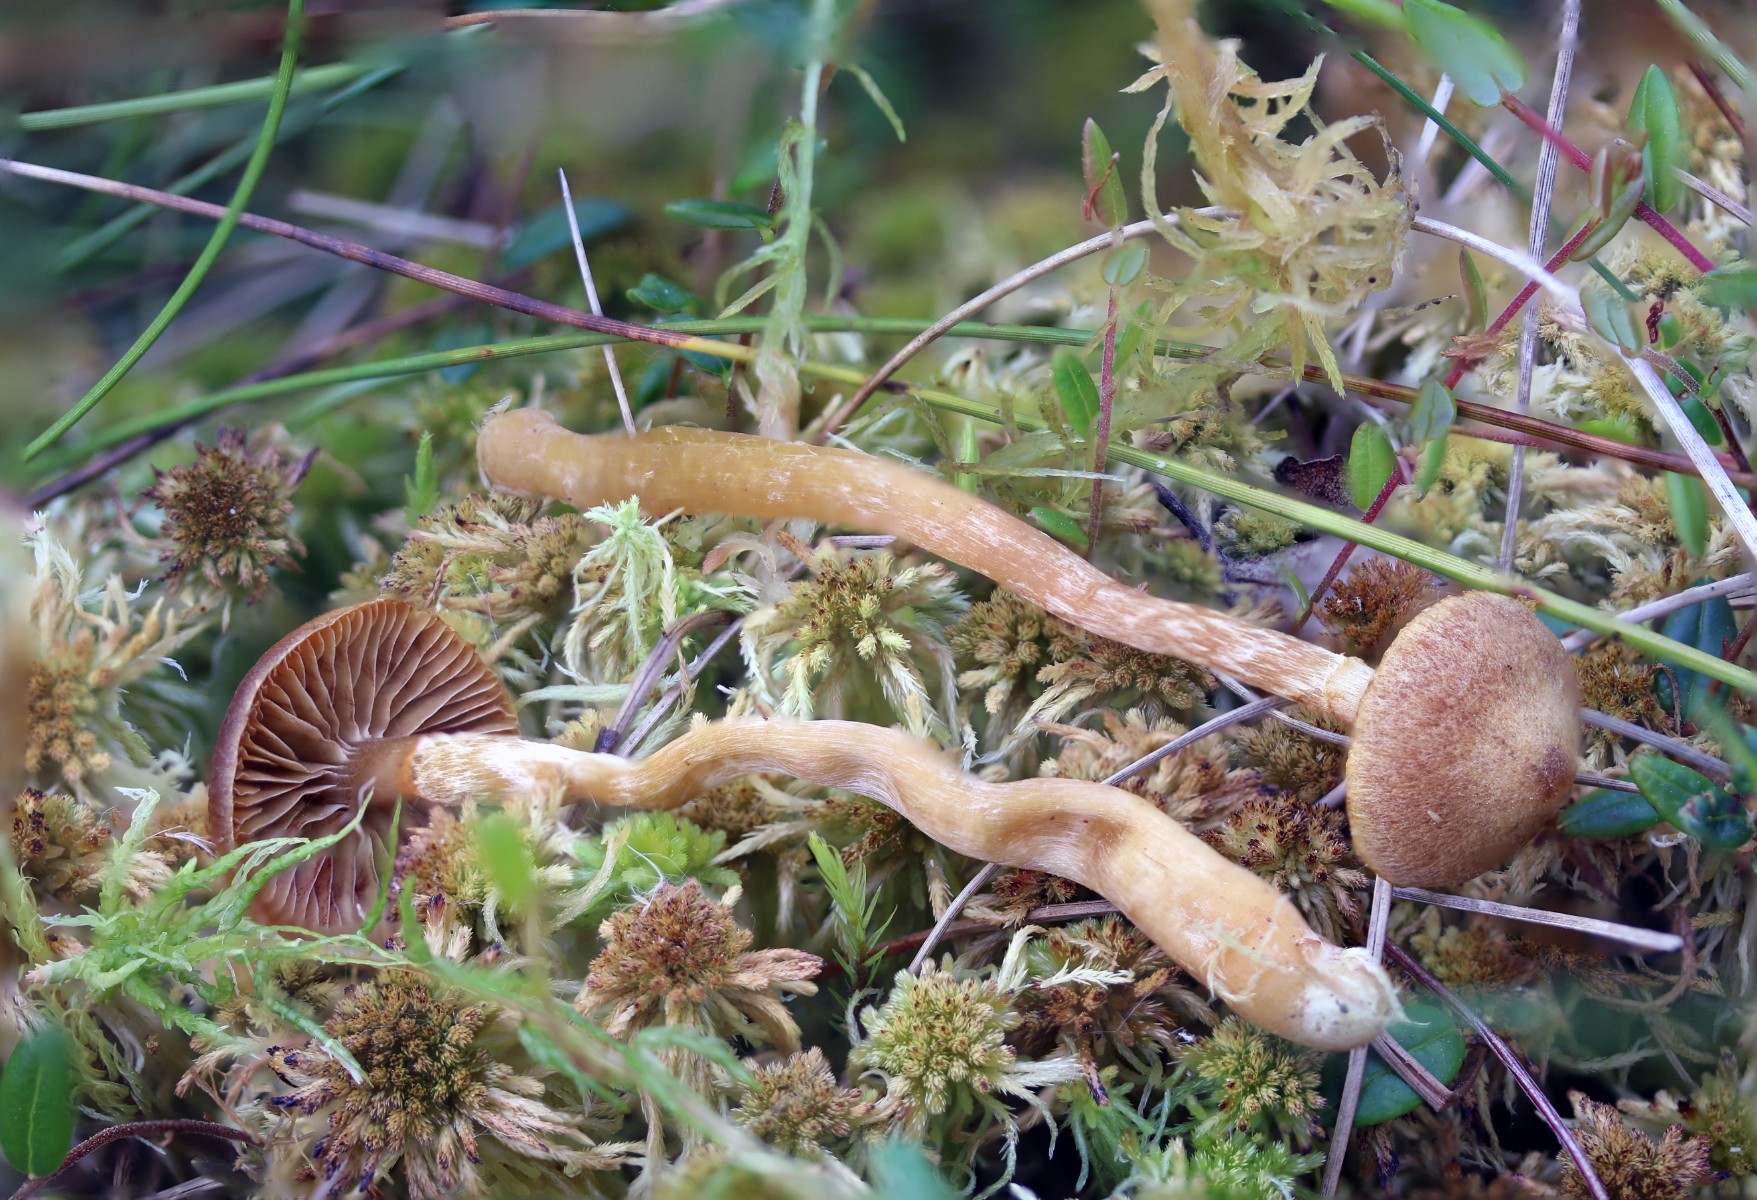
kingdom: Fungi
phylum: Basidiomycota
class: Agaricomycetes
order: Agaricales
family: Hymenogastraceae
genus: Galerina
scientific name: Galerina paludosa
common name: mose-hjelmhat
